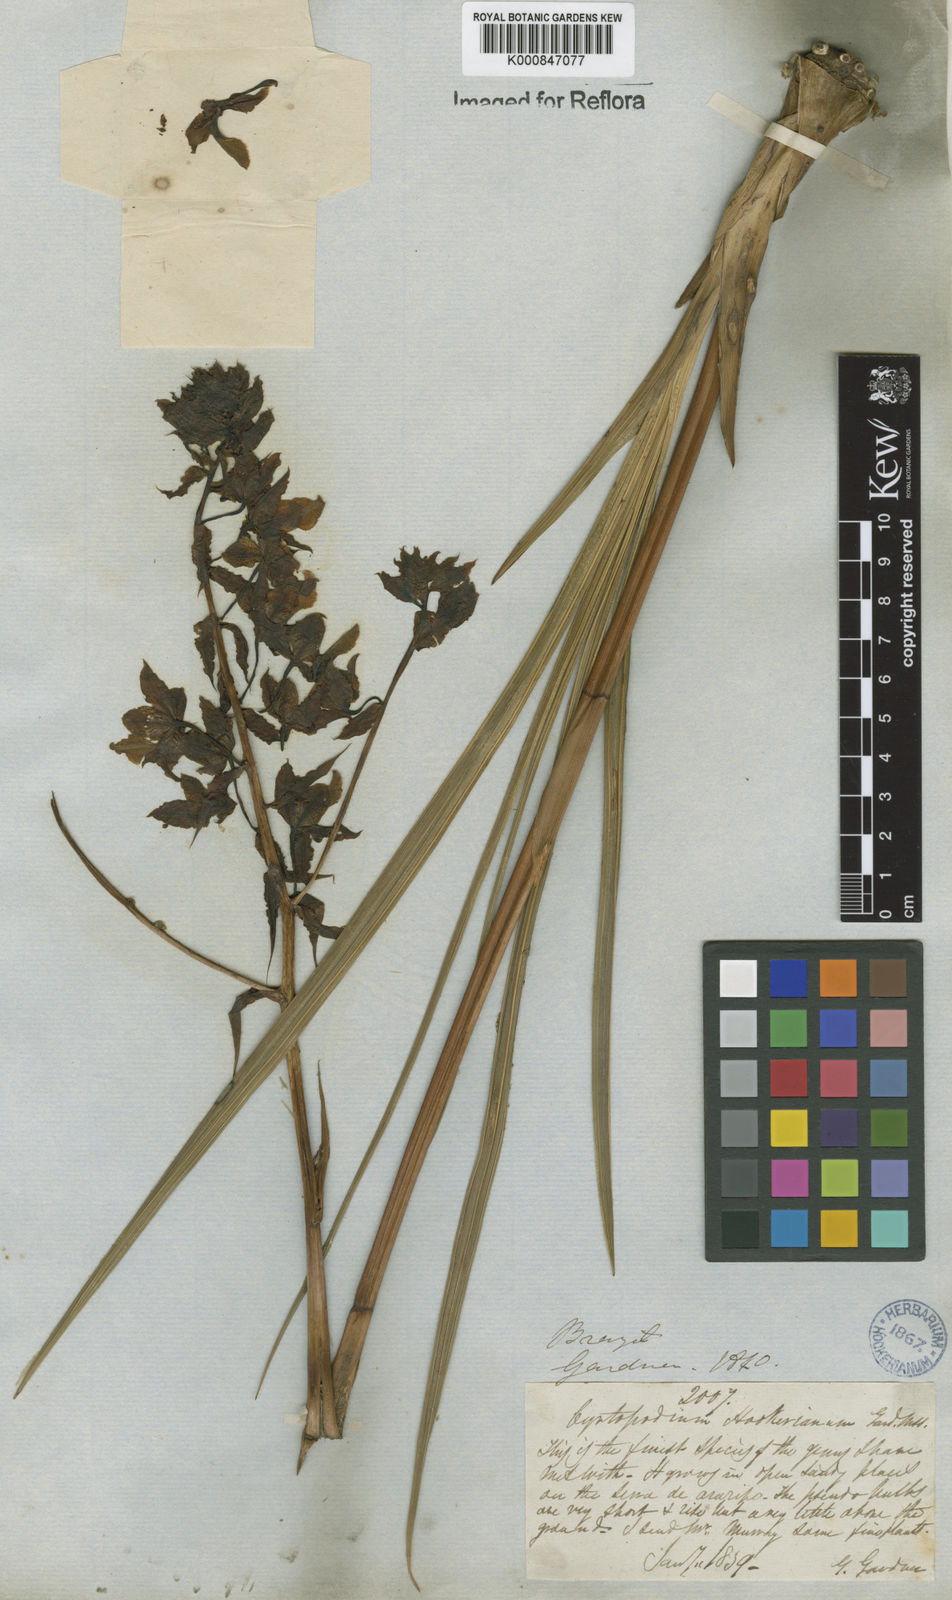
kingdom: Plantae
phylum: Tracheophyta
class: Liliopsida
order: Asparagales
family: Orchidaceae
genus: Cyrtopodium
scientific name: Cyrtopodium blanchetii
